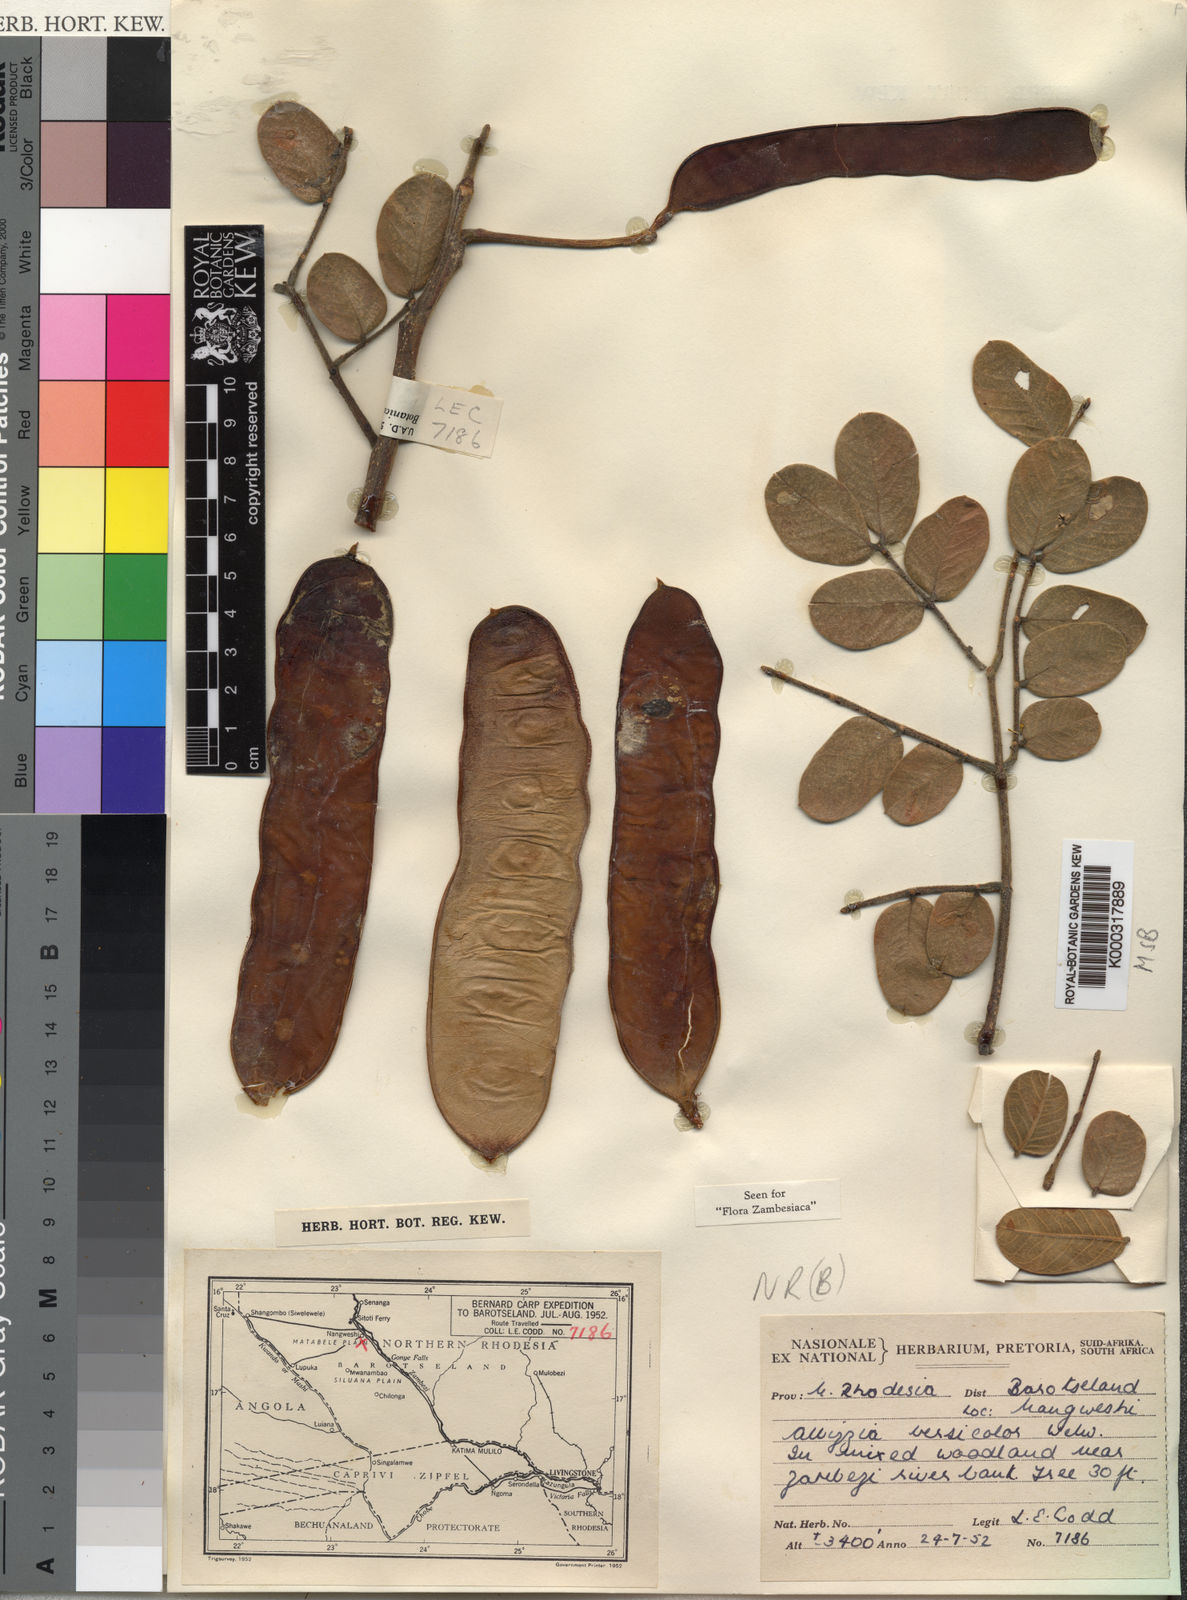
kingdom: Plantae
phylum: Tracheophyta
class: Magnoliopsida
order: Fabales
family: Fabaceae
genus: Albizia
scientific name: Albizia versicolor
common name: Poisonpod
